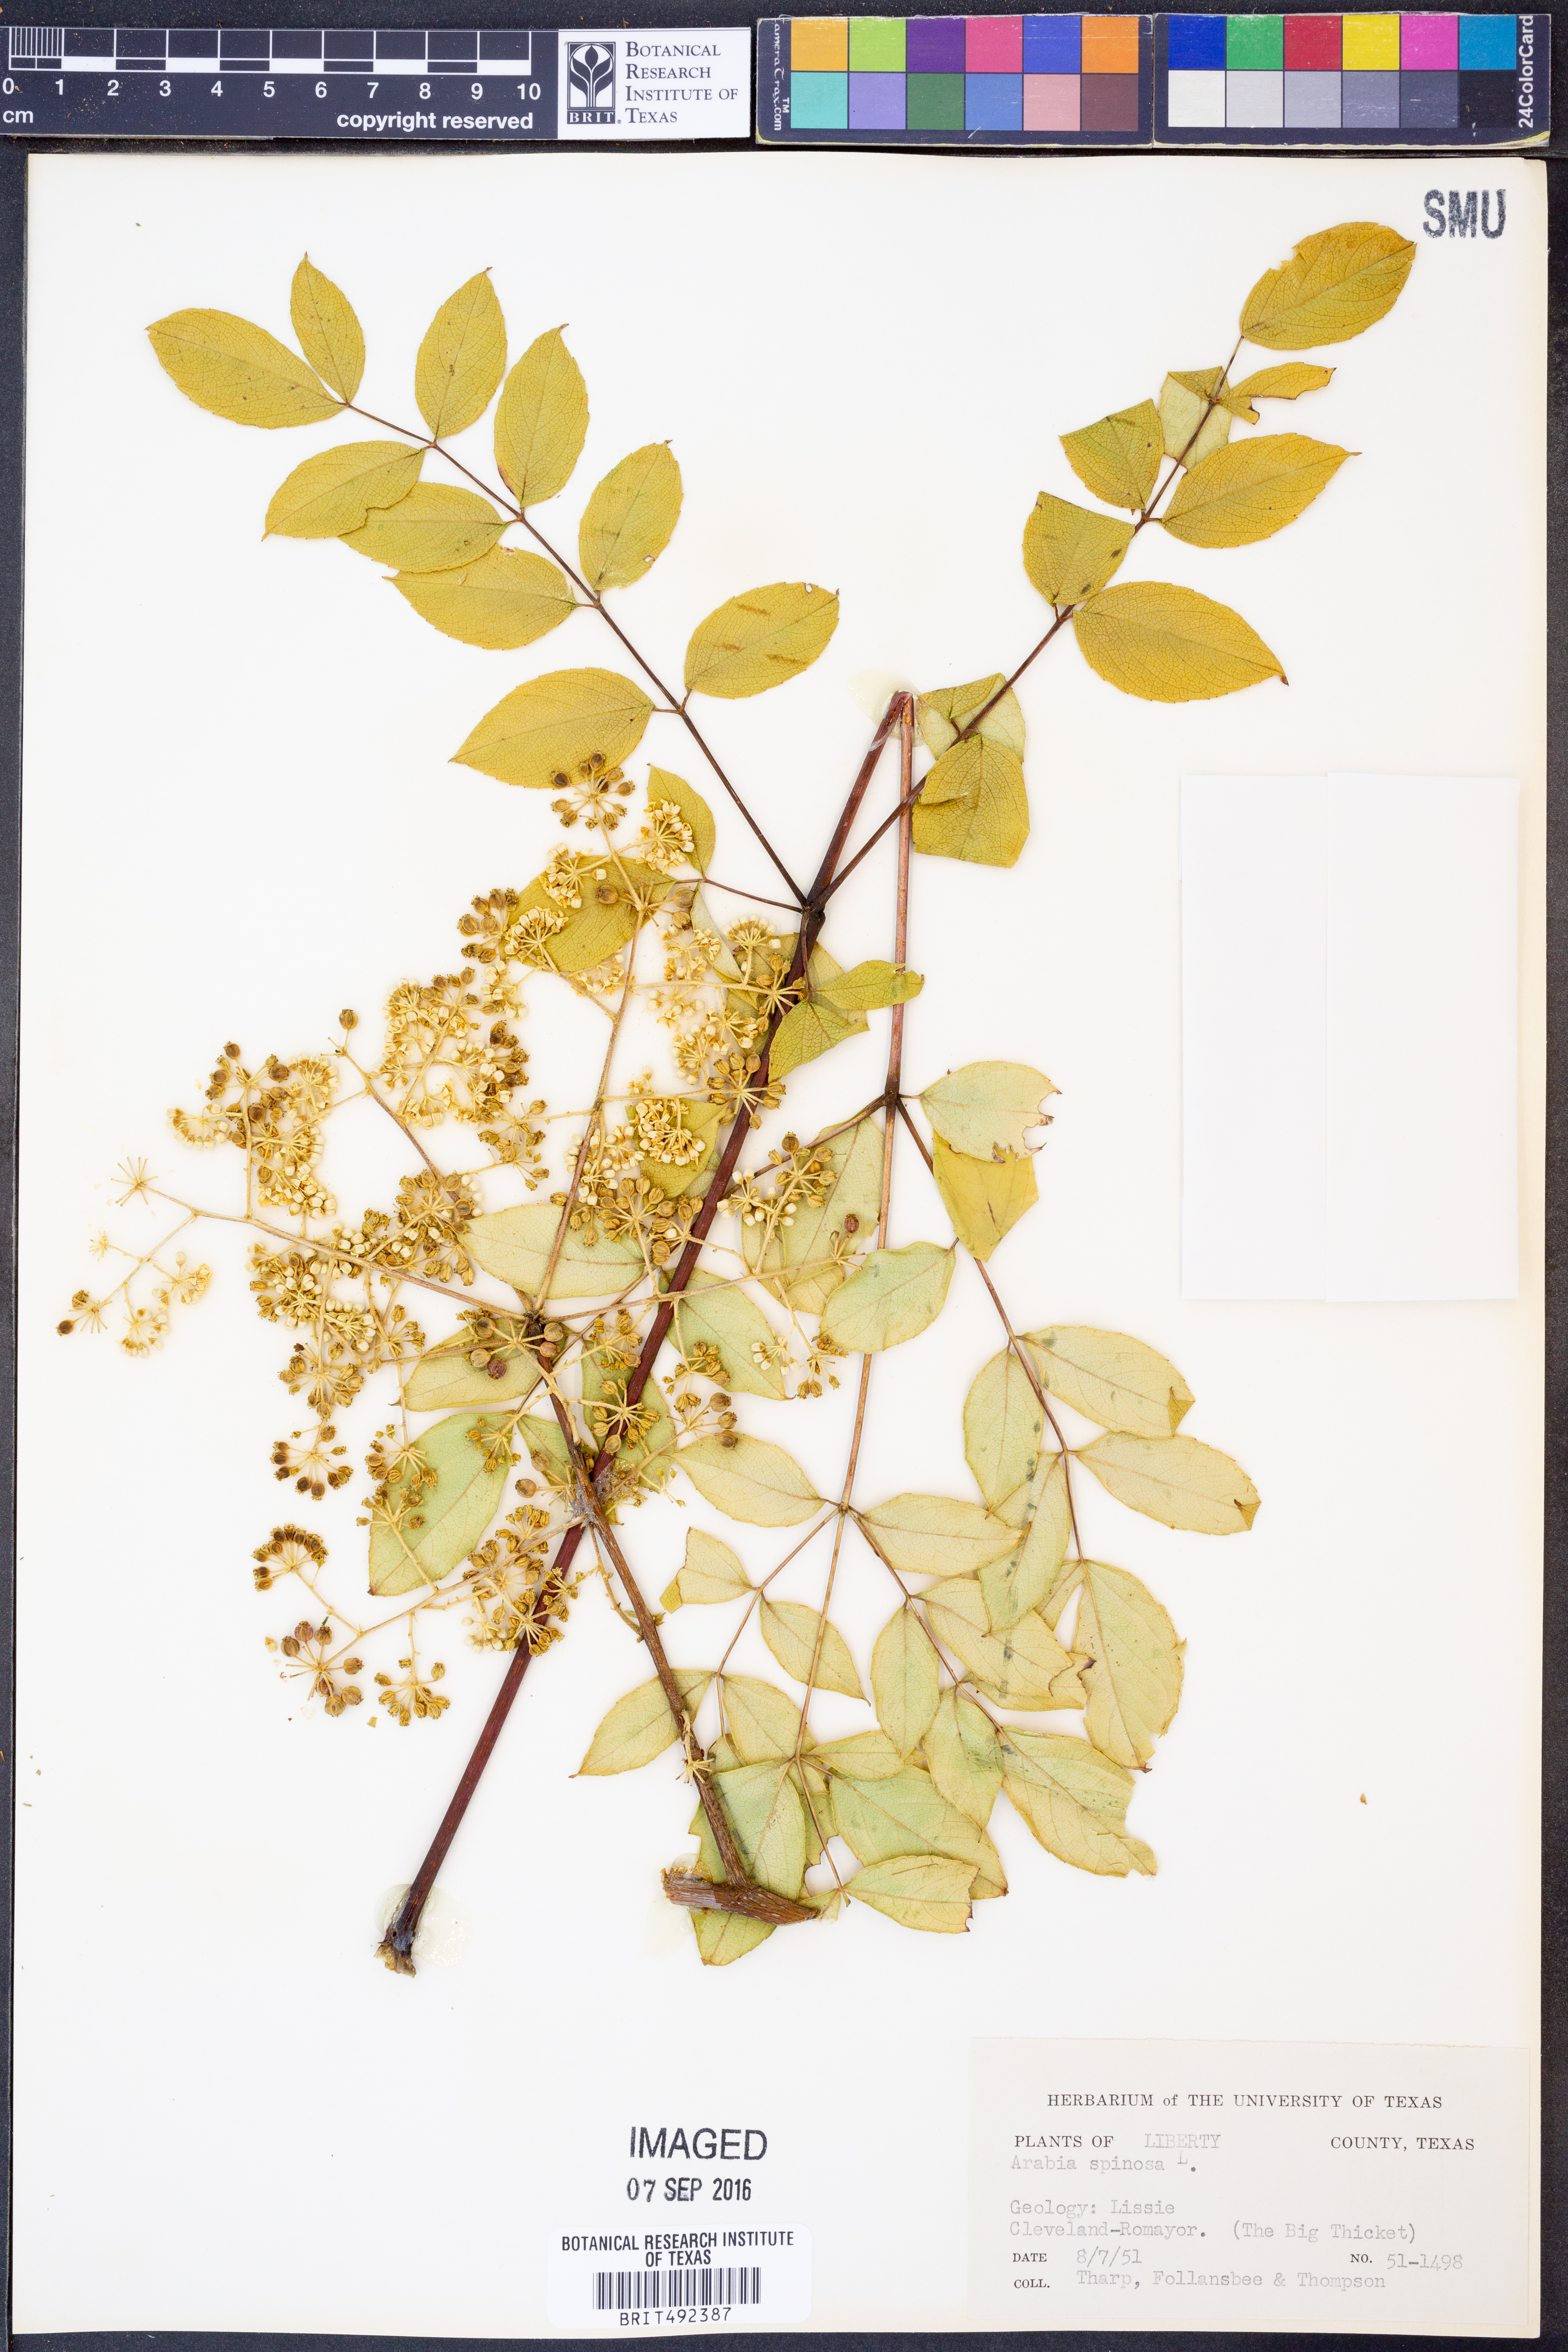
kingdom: Plantae
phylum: Tracheophyta
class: Magnoliopsida
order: Apiales
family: Araliaceae
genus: Aralia
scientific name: Aralia spinosa
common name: Hercules'-club
